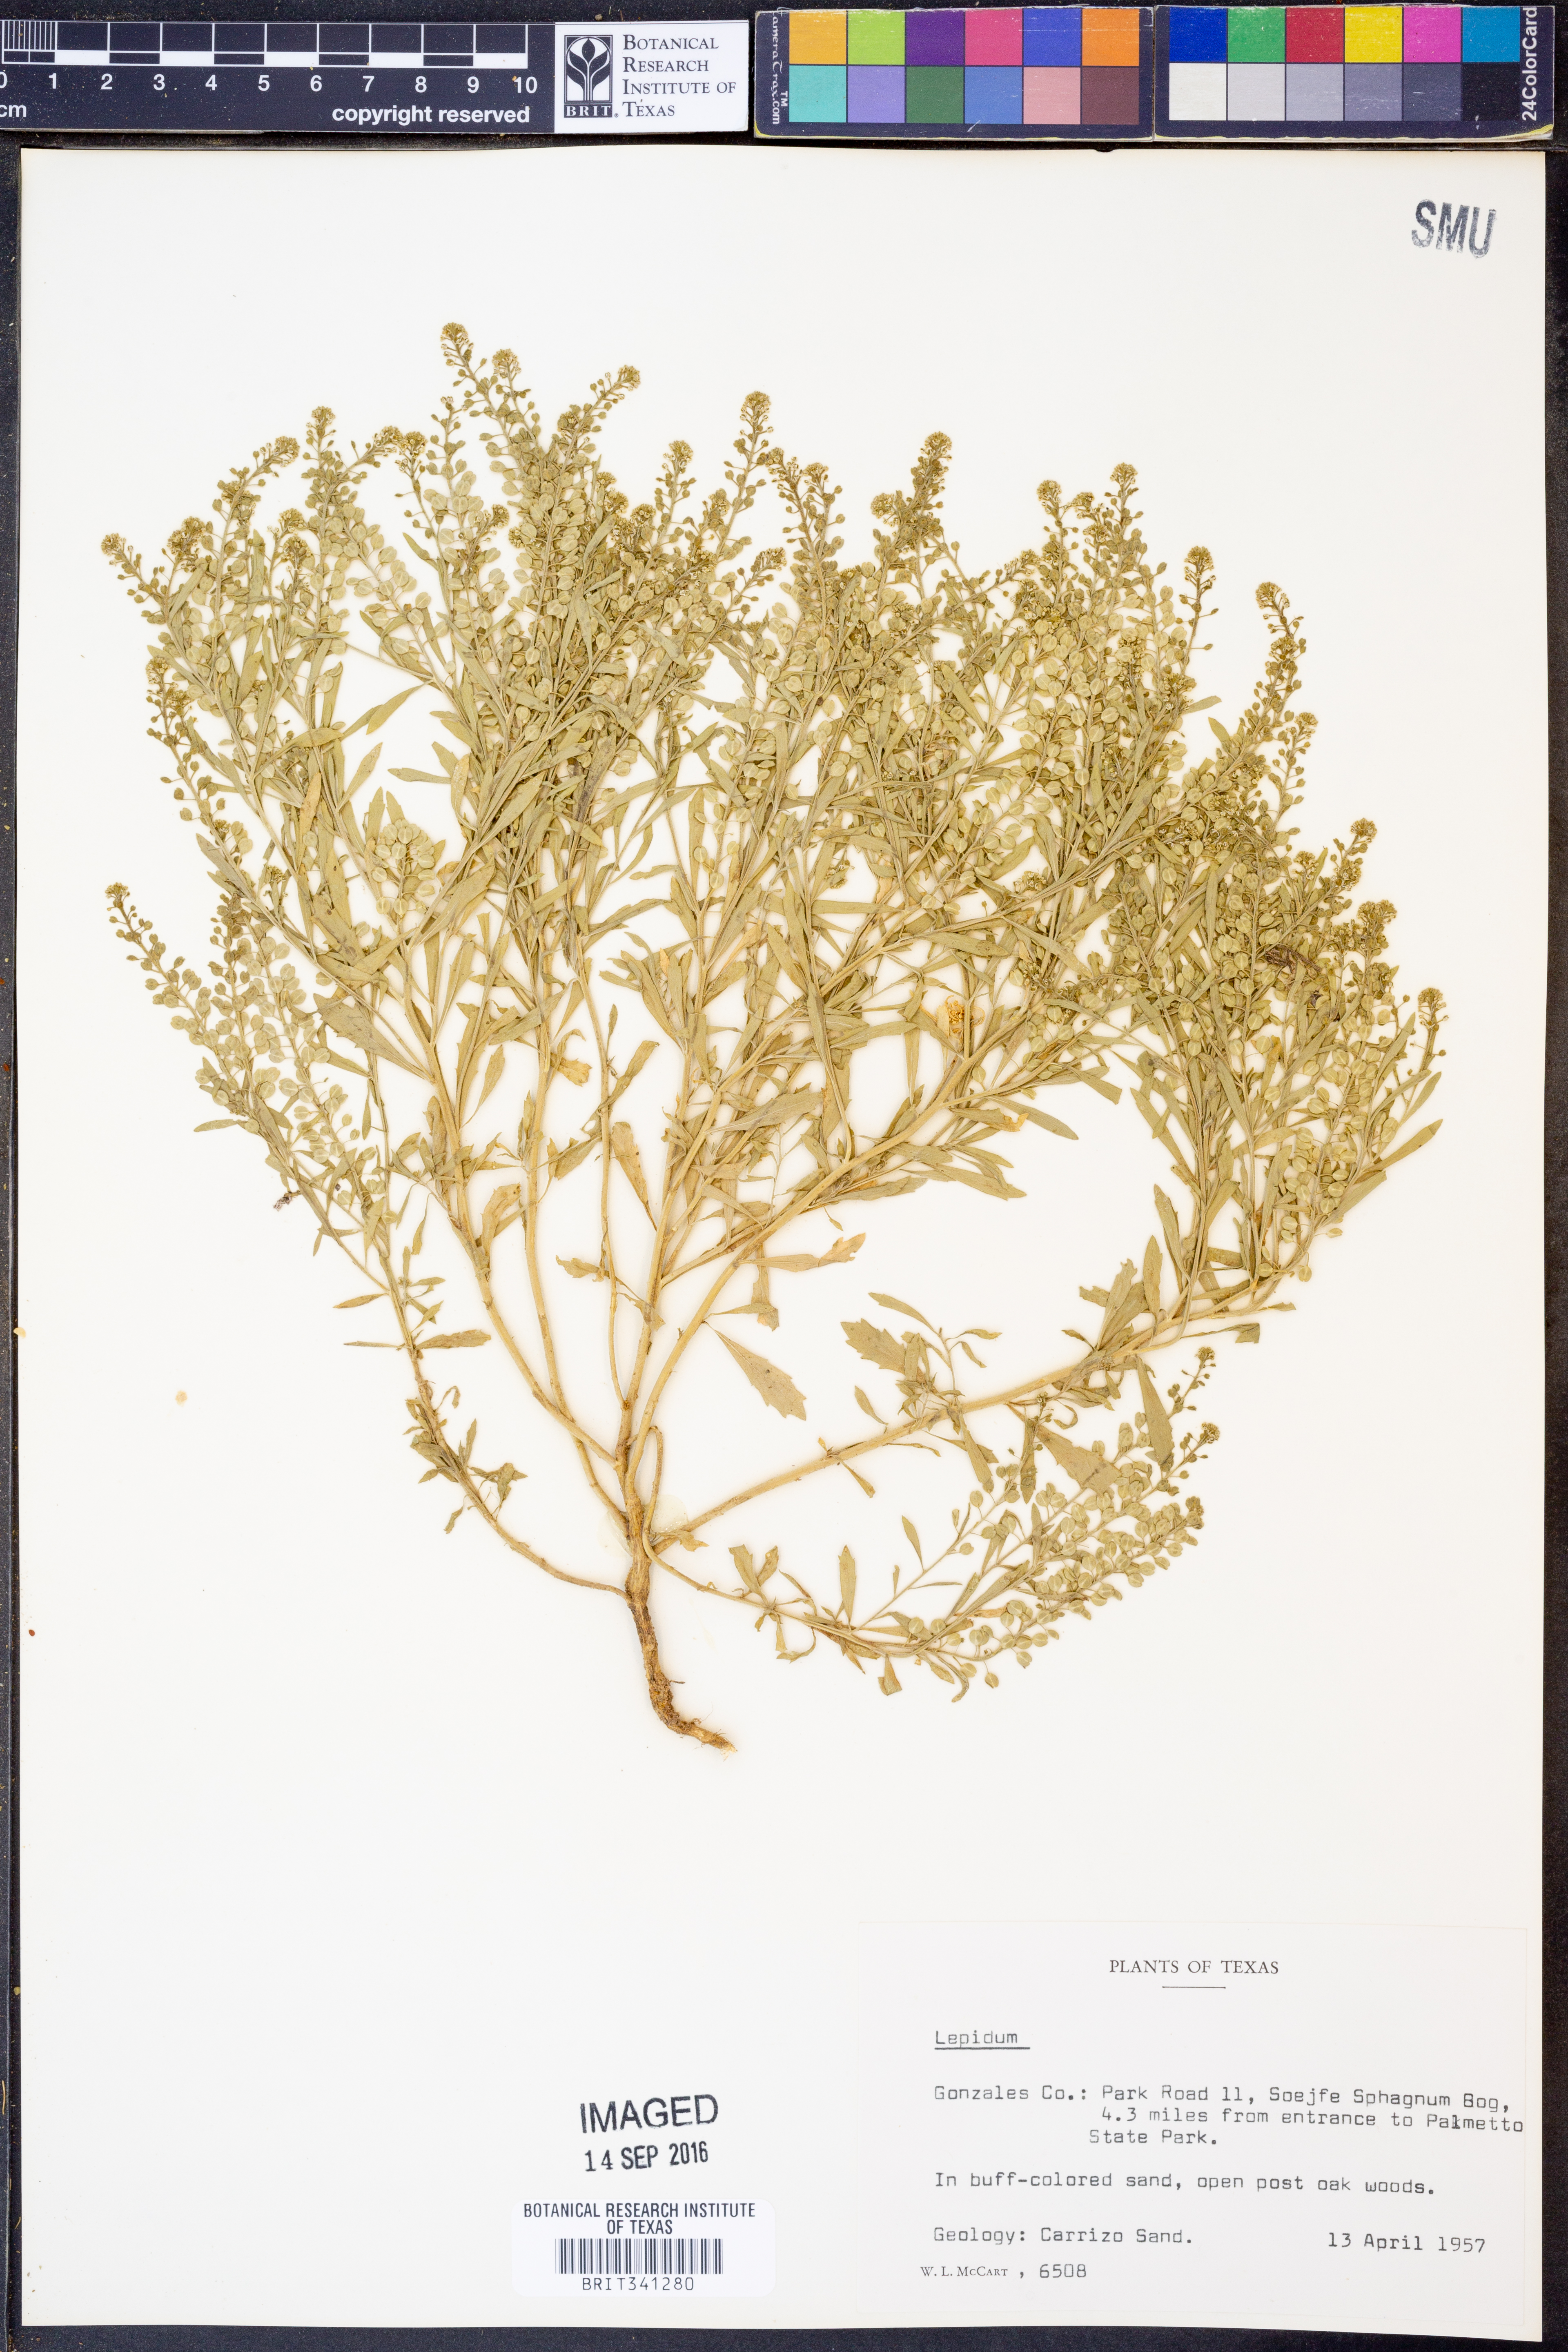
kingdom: Plantae
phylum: Tracheophyta
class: Magnoliopsida
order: Brassicales
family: Brassicaceae
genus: Lepidium
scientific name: Lepidium
